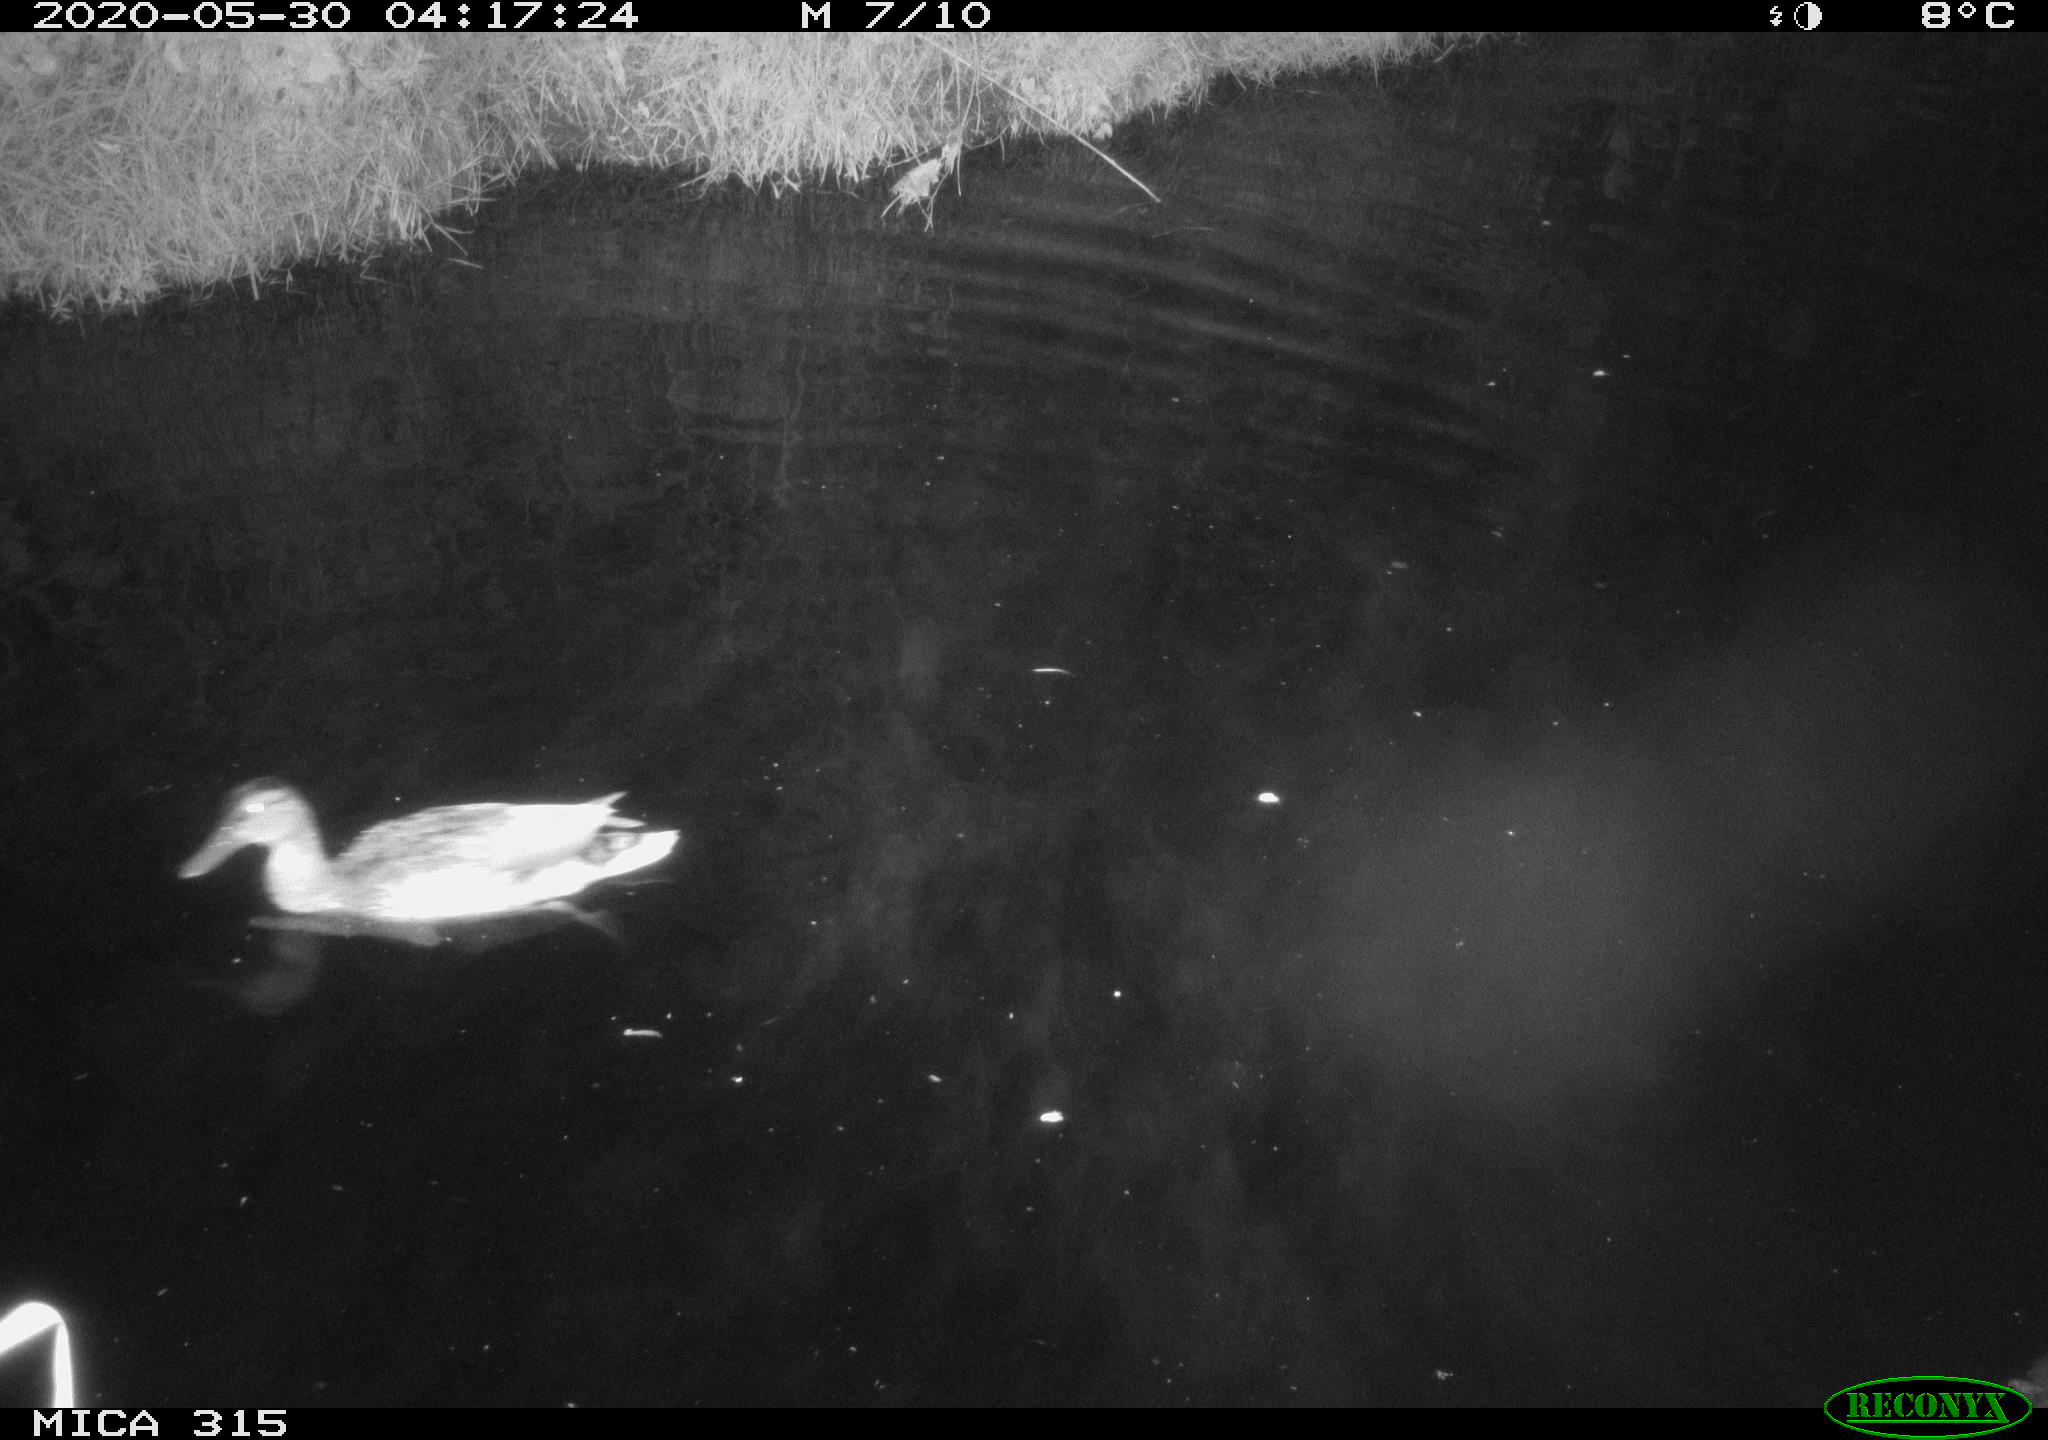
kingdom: Animalia
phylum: Chordata
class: Aves
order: Anseriformes
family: Anatidae
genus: Anas
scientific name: Anas platyrhynchos
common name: Mallard
